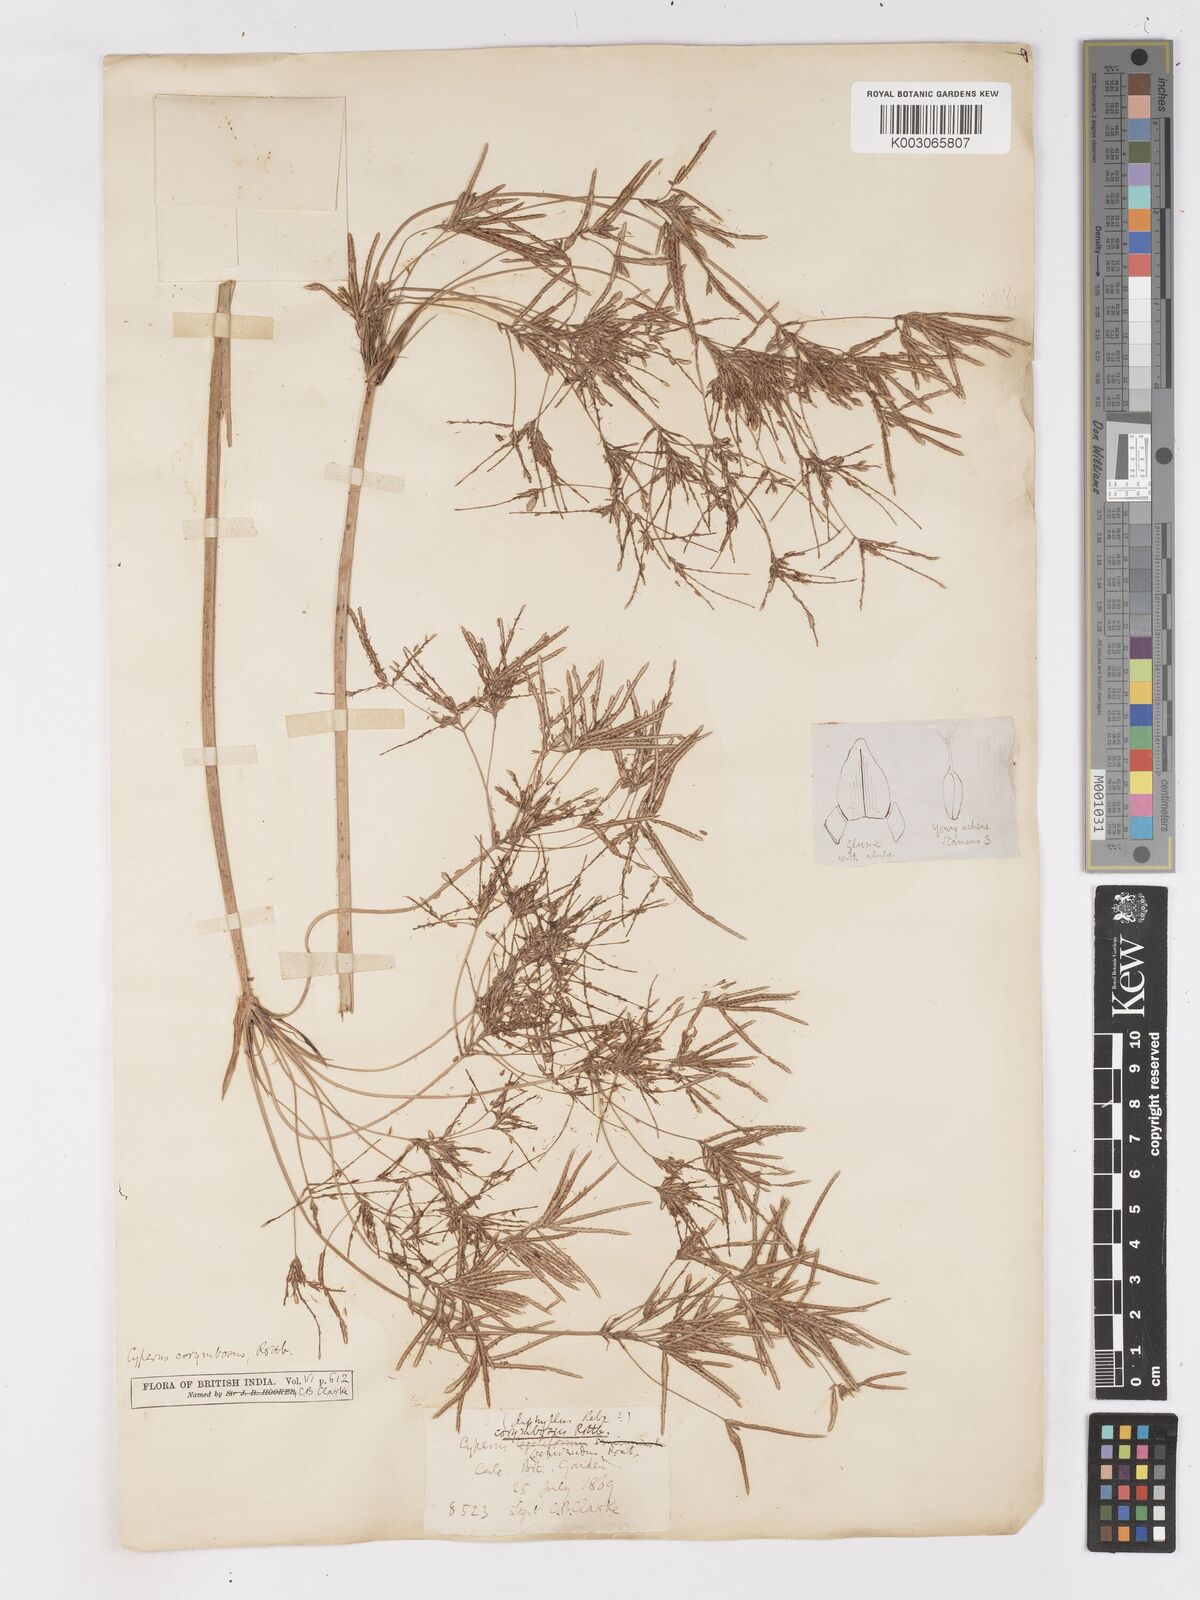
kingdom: Plantae
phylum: Tracheophyta
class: Liliopsida
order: Poales
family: Cyperaceae
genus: Cyperus
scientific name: Cyperus corymbosus
